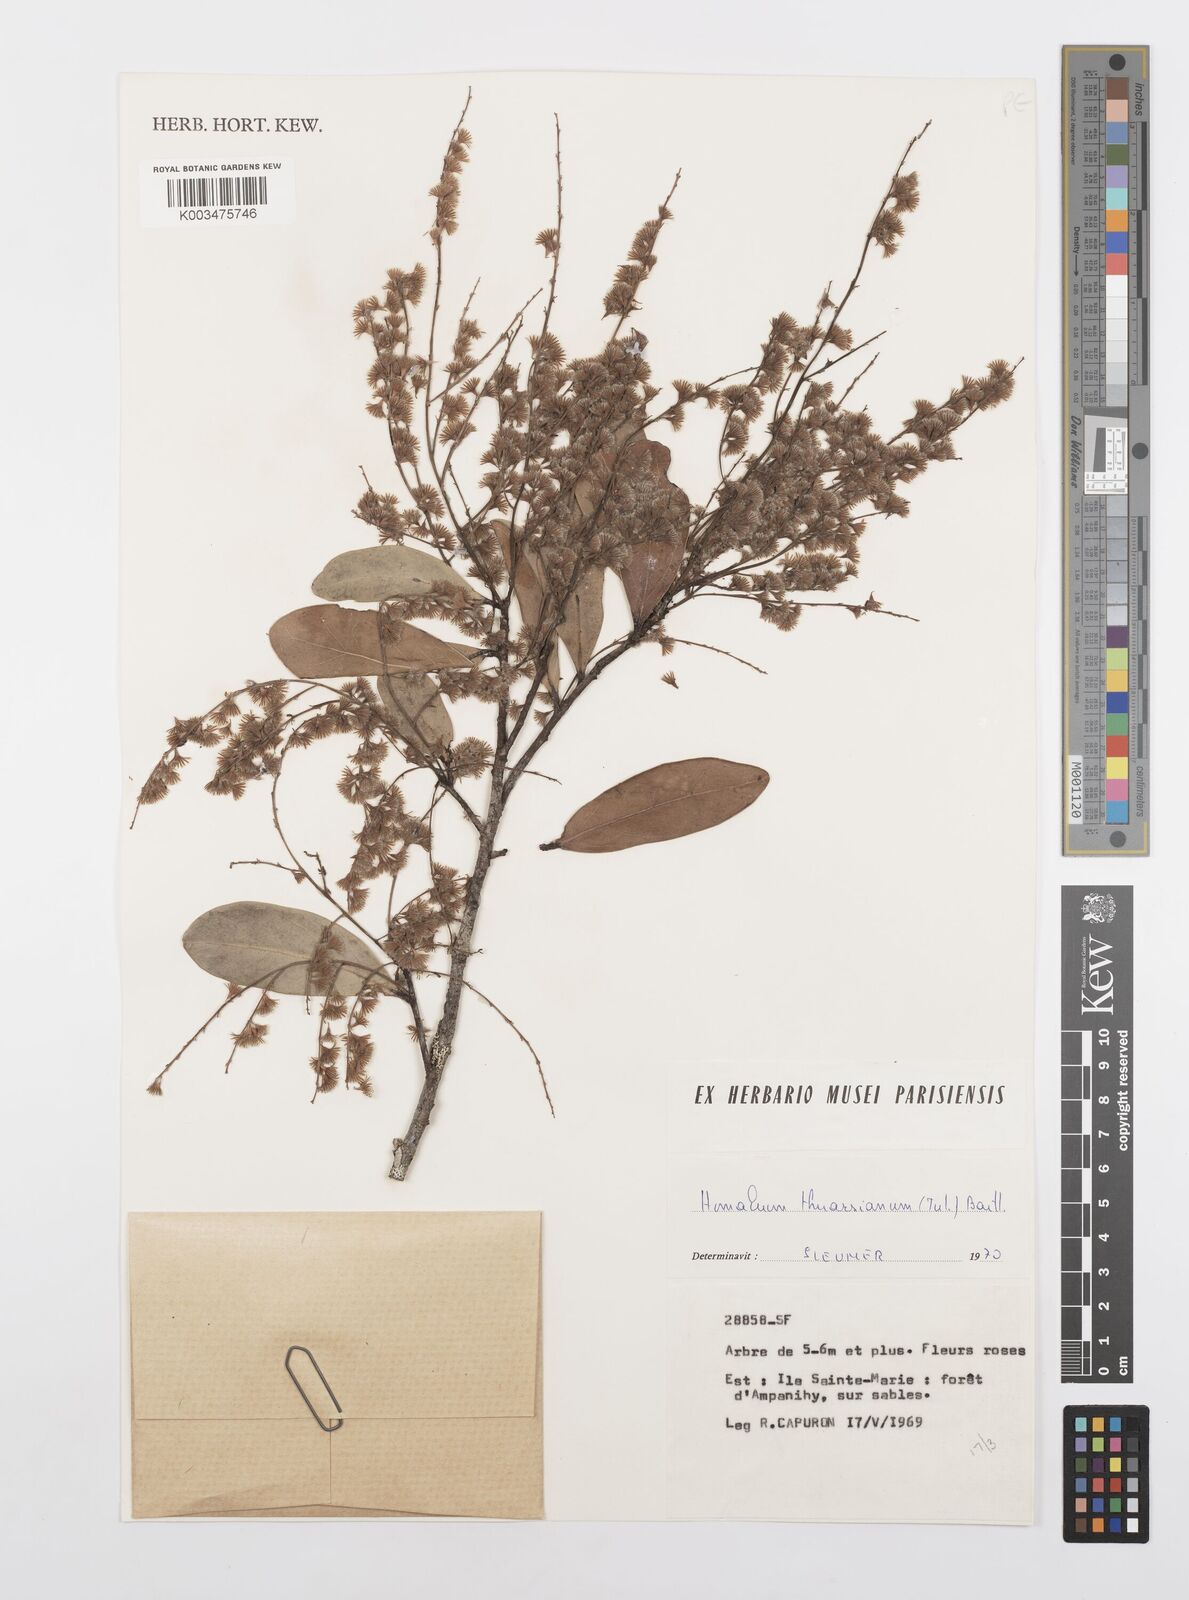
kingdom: Plantae
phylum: Tracheophyta
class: Magnoliopsida
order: Malpighiales
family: Salicaceae
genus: Homalium
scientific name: Homalium thuarsianum
